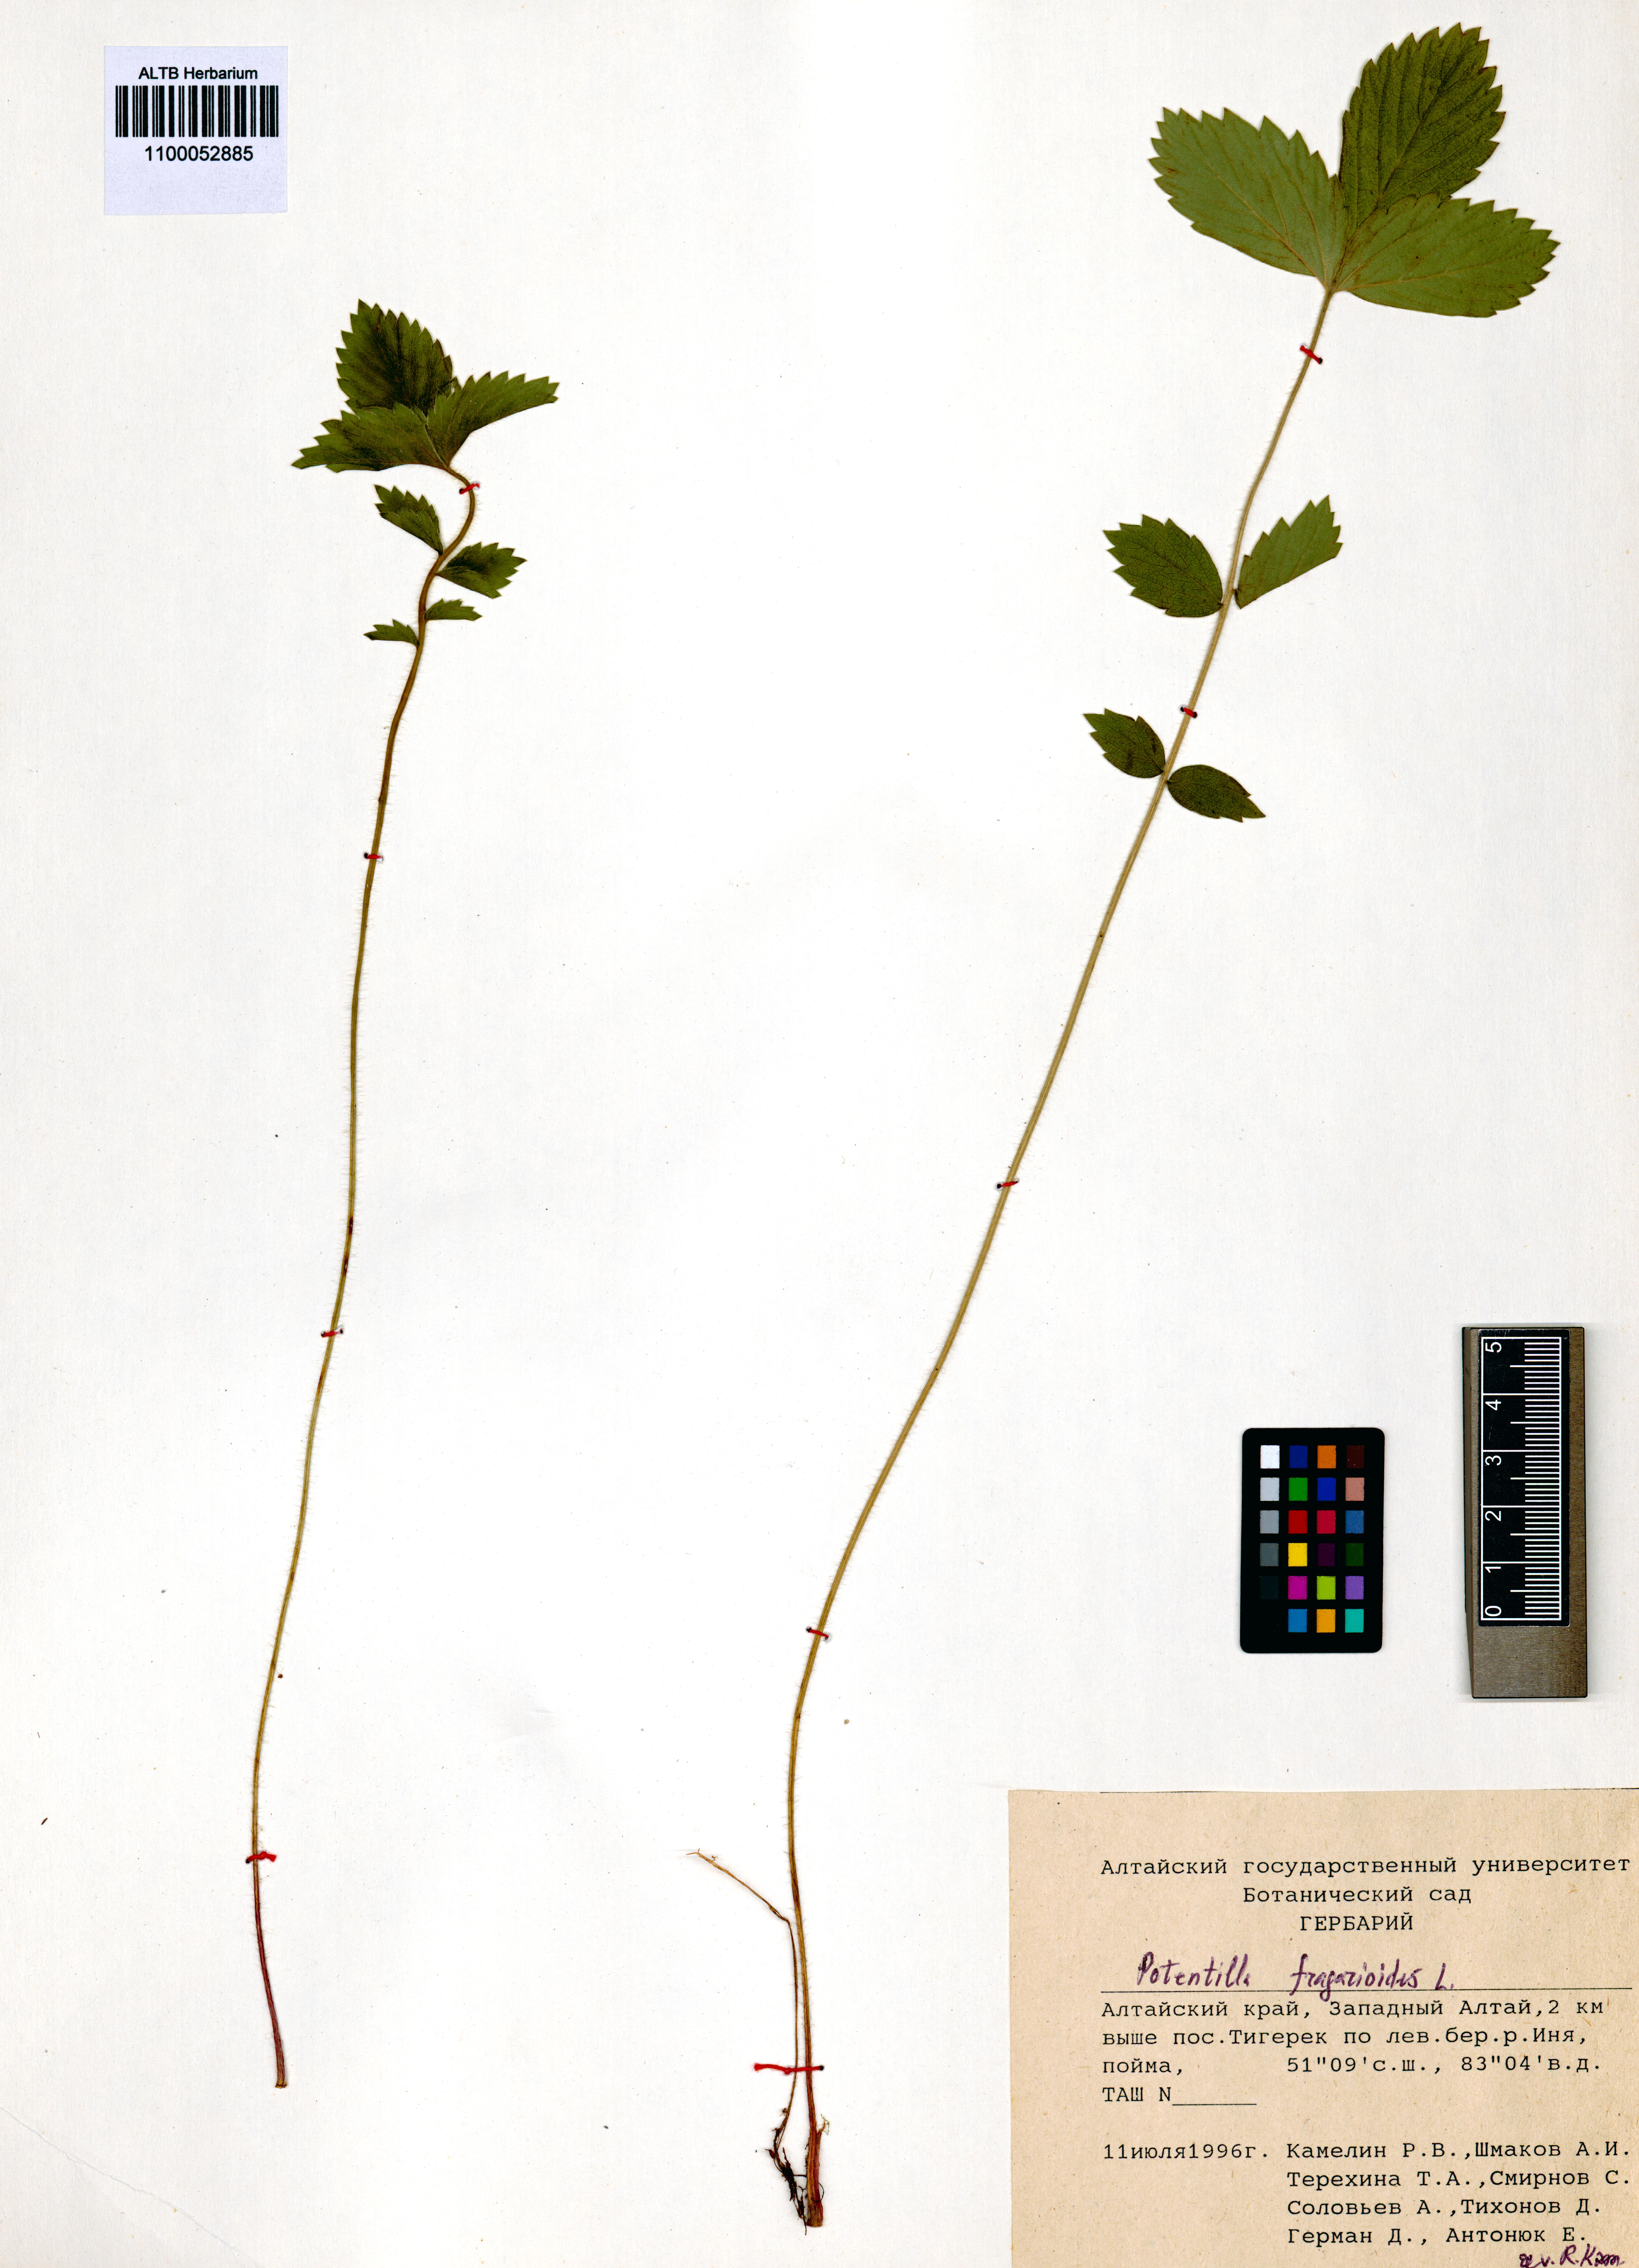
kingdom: Plantae
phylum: Tracheophyta
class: Magnoliopsida
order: Rosales
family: Rosaceae
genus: Potentilla
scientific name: Potentilla fragarioides
